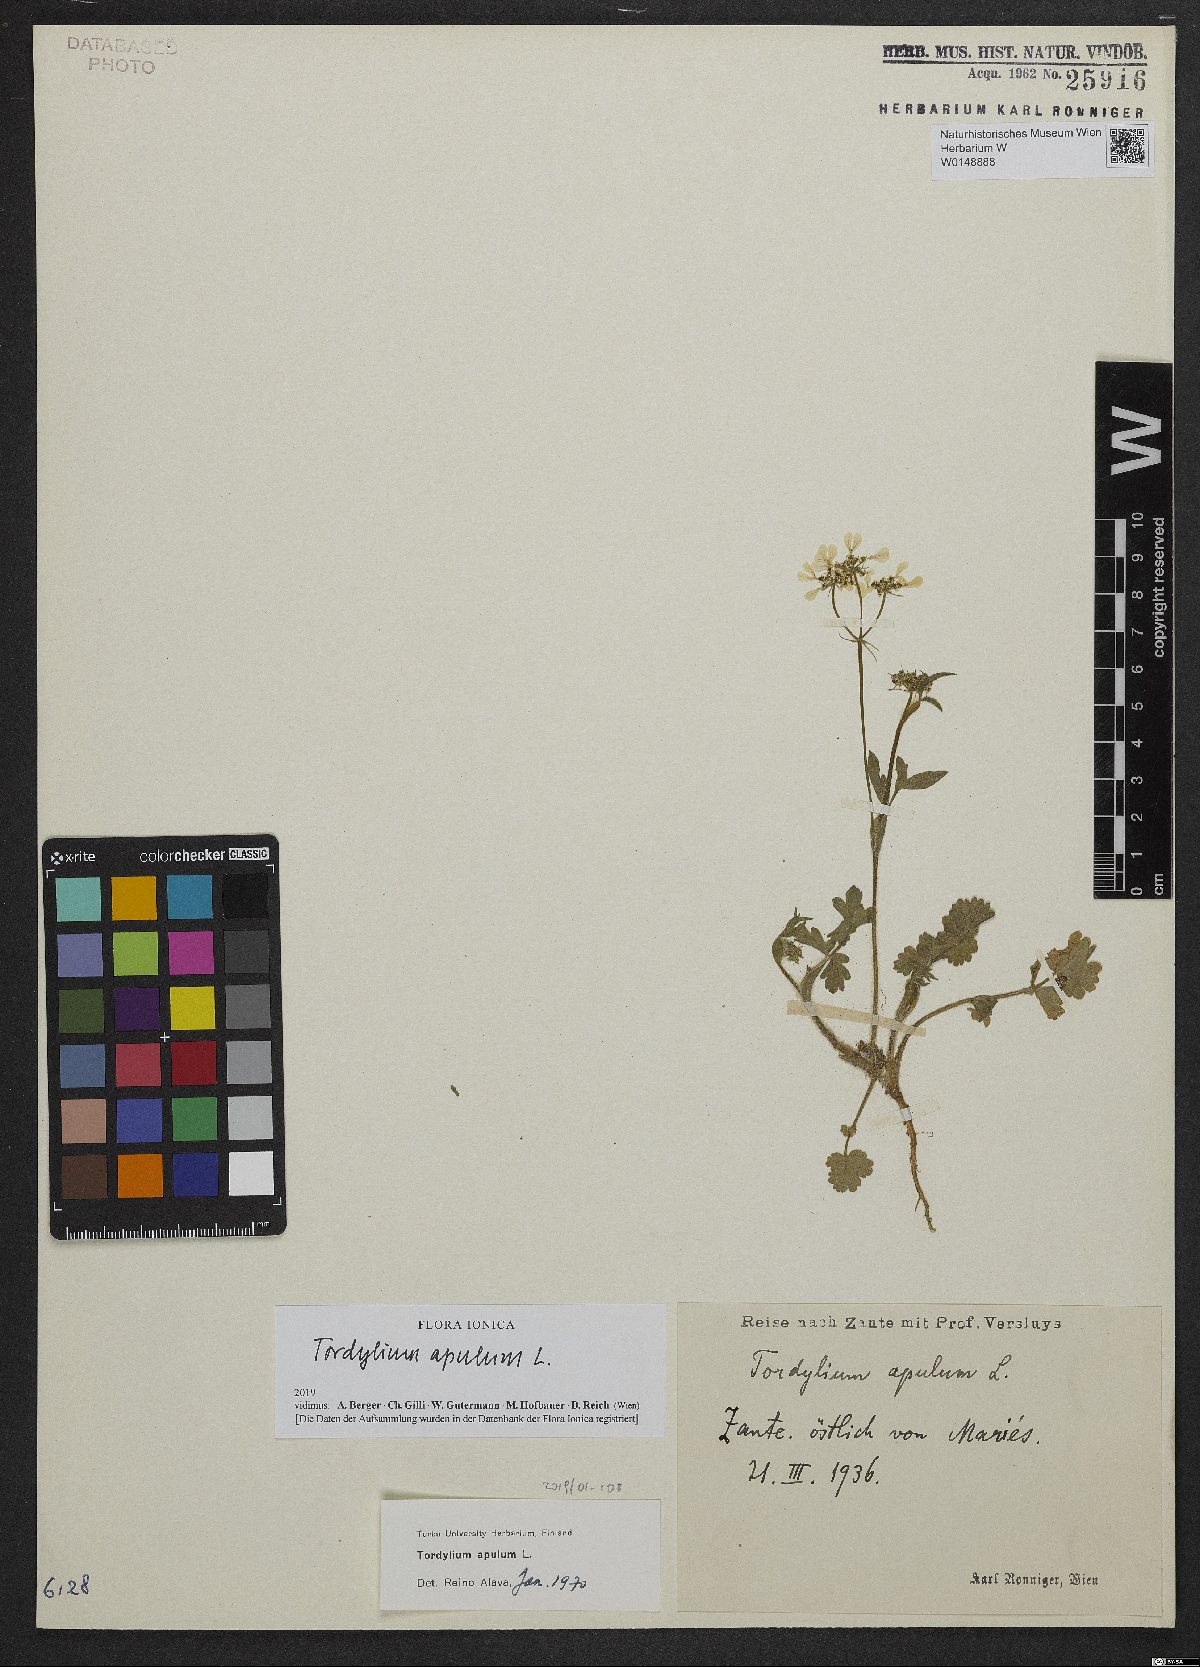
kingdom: Plantae
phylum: Tracheophyta
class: Magnoliopsida
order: Apiales
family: Apiaceae
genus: Tordylium
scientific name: Tordylium apulum
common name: Mediterranean hartwort
